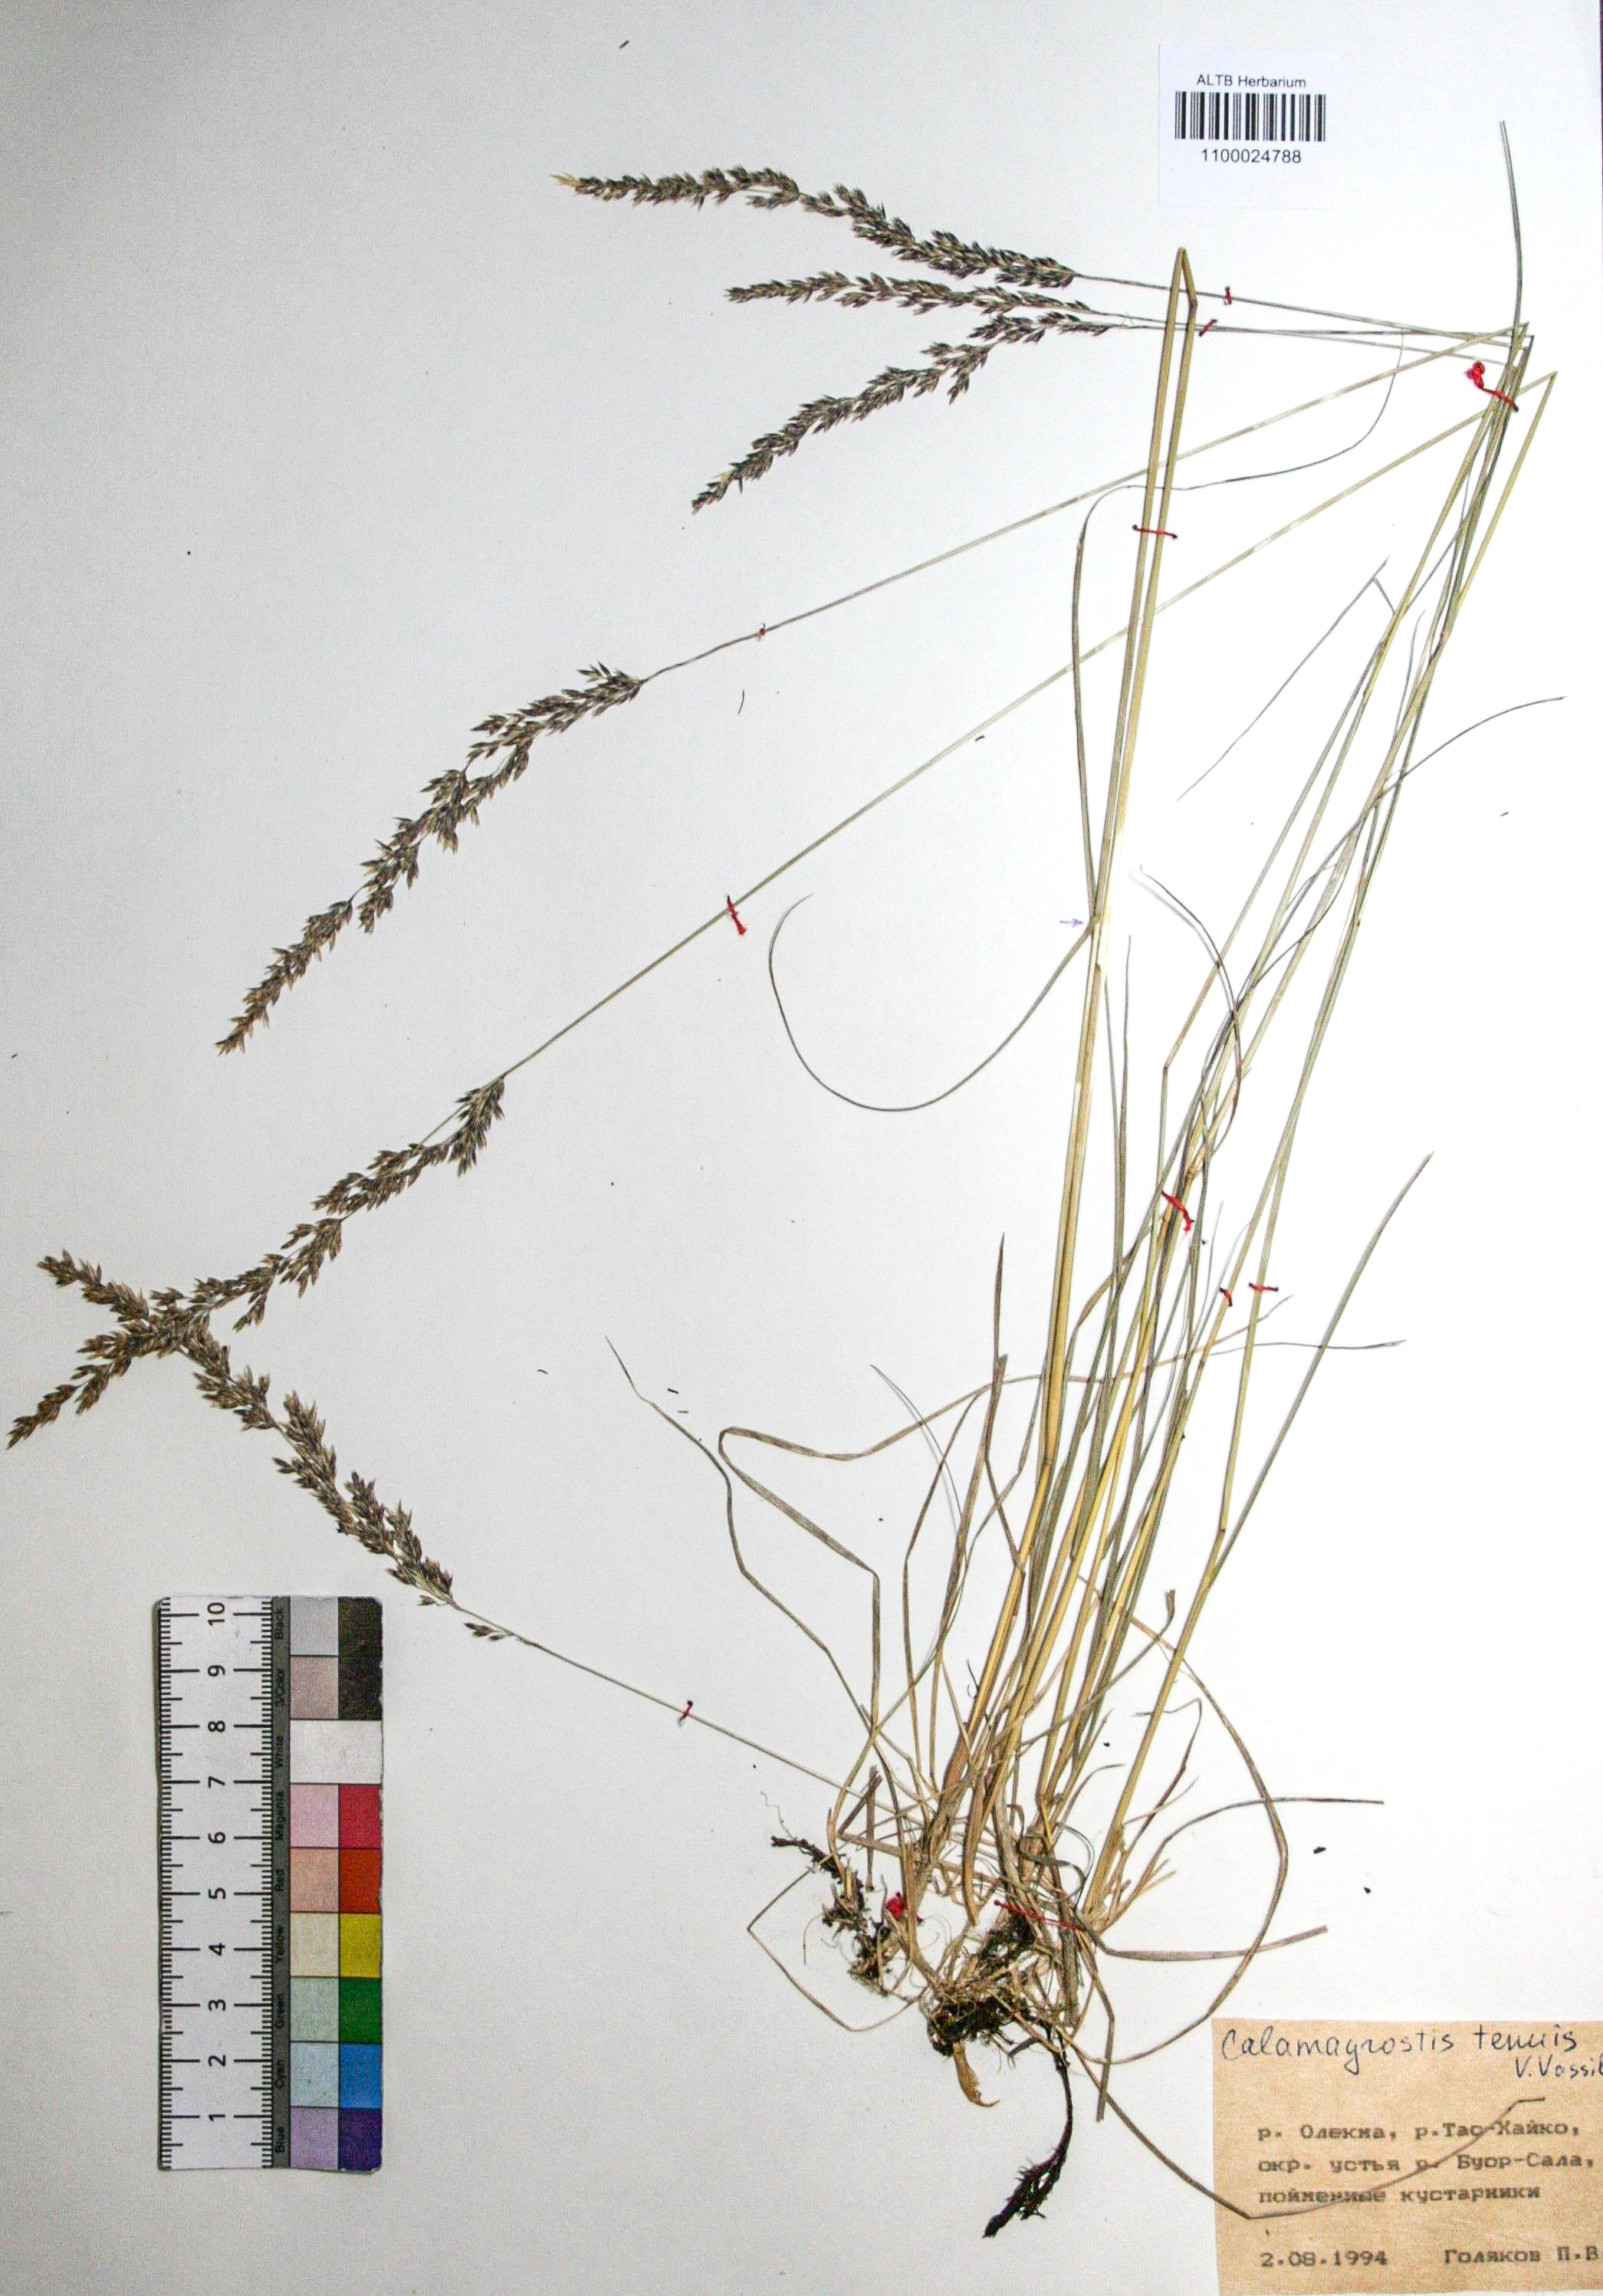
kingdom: Plantae
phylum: Tracheophyta
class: Liliopsida
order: Poales
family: Poaceae
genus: Calamagrostis
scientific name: Calamagrostis angustifolia
